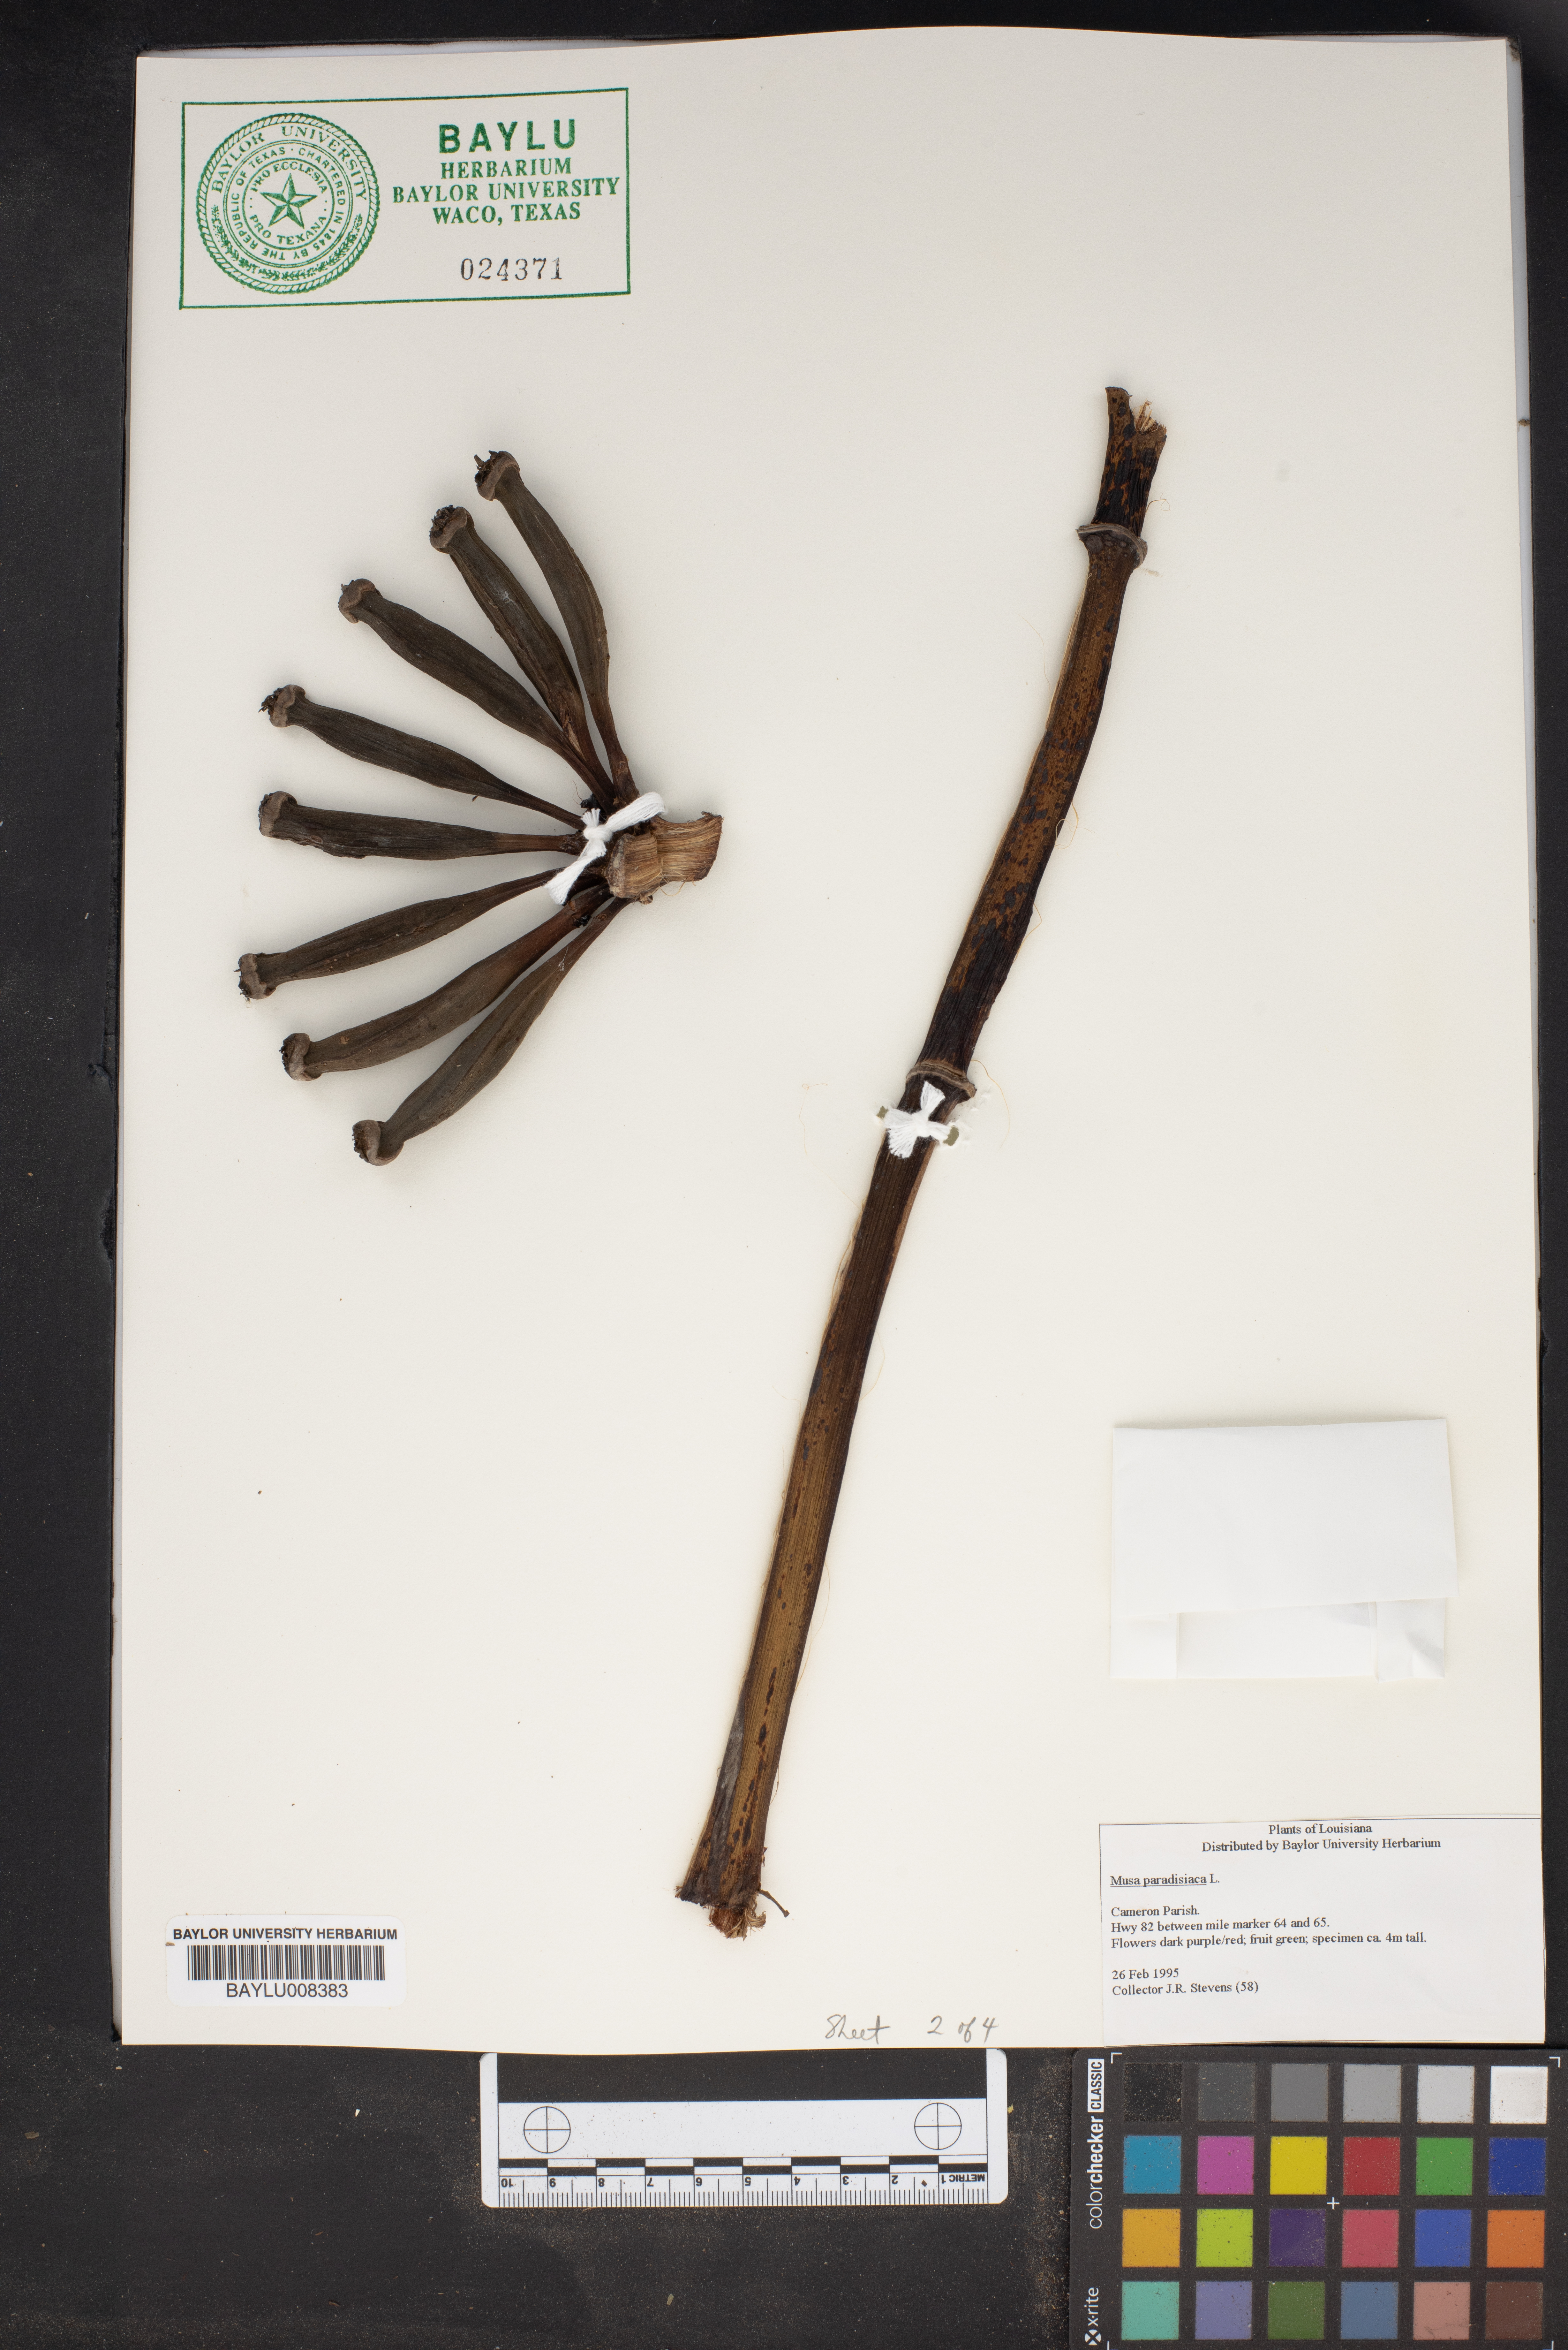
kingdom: Plantae
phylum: Tracheophyta
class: Liliopsida
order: Zingiberales
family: Musaceae
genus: Musa
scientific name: Musa paradisiaca
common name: French plantain
